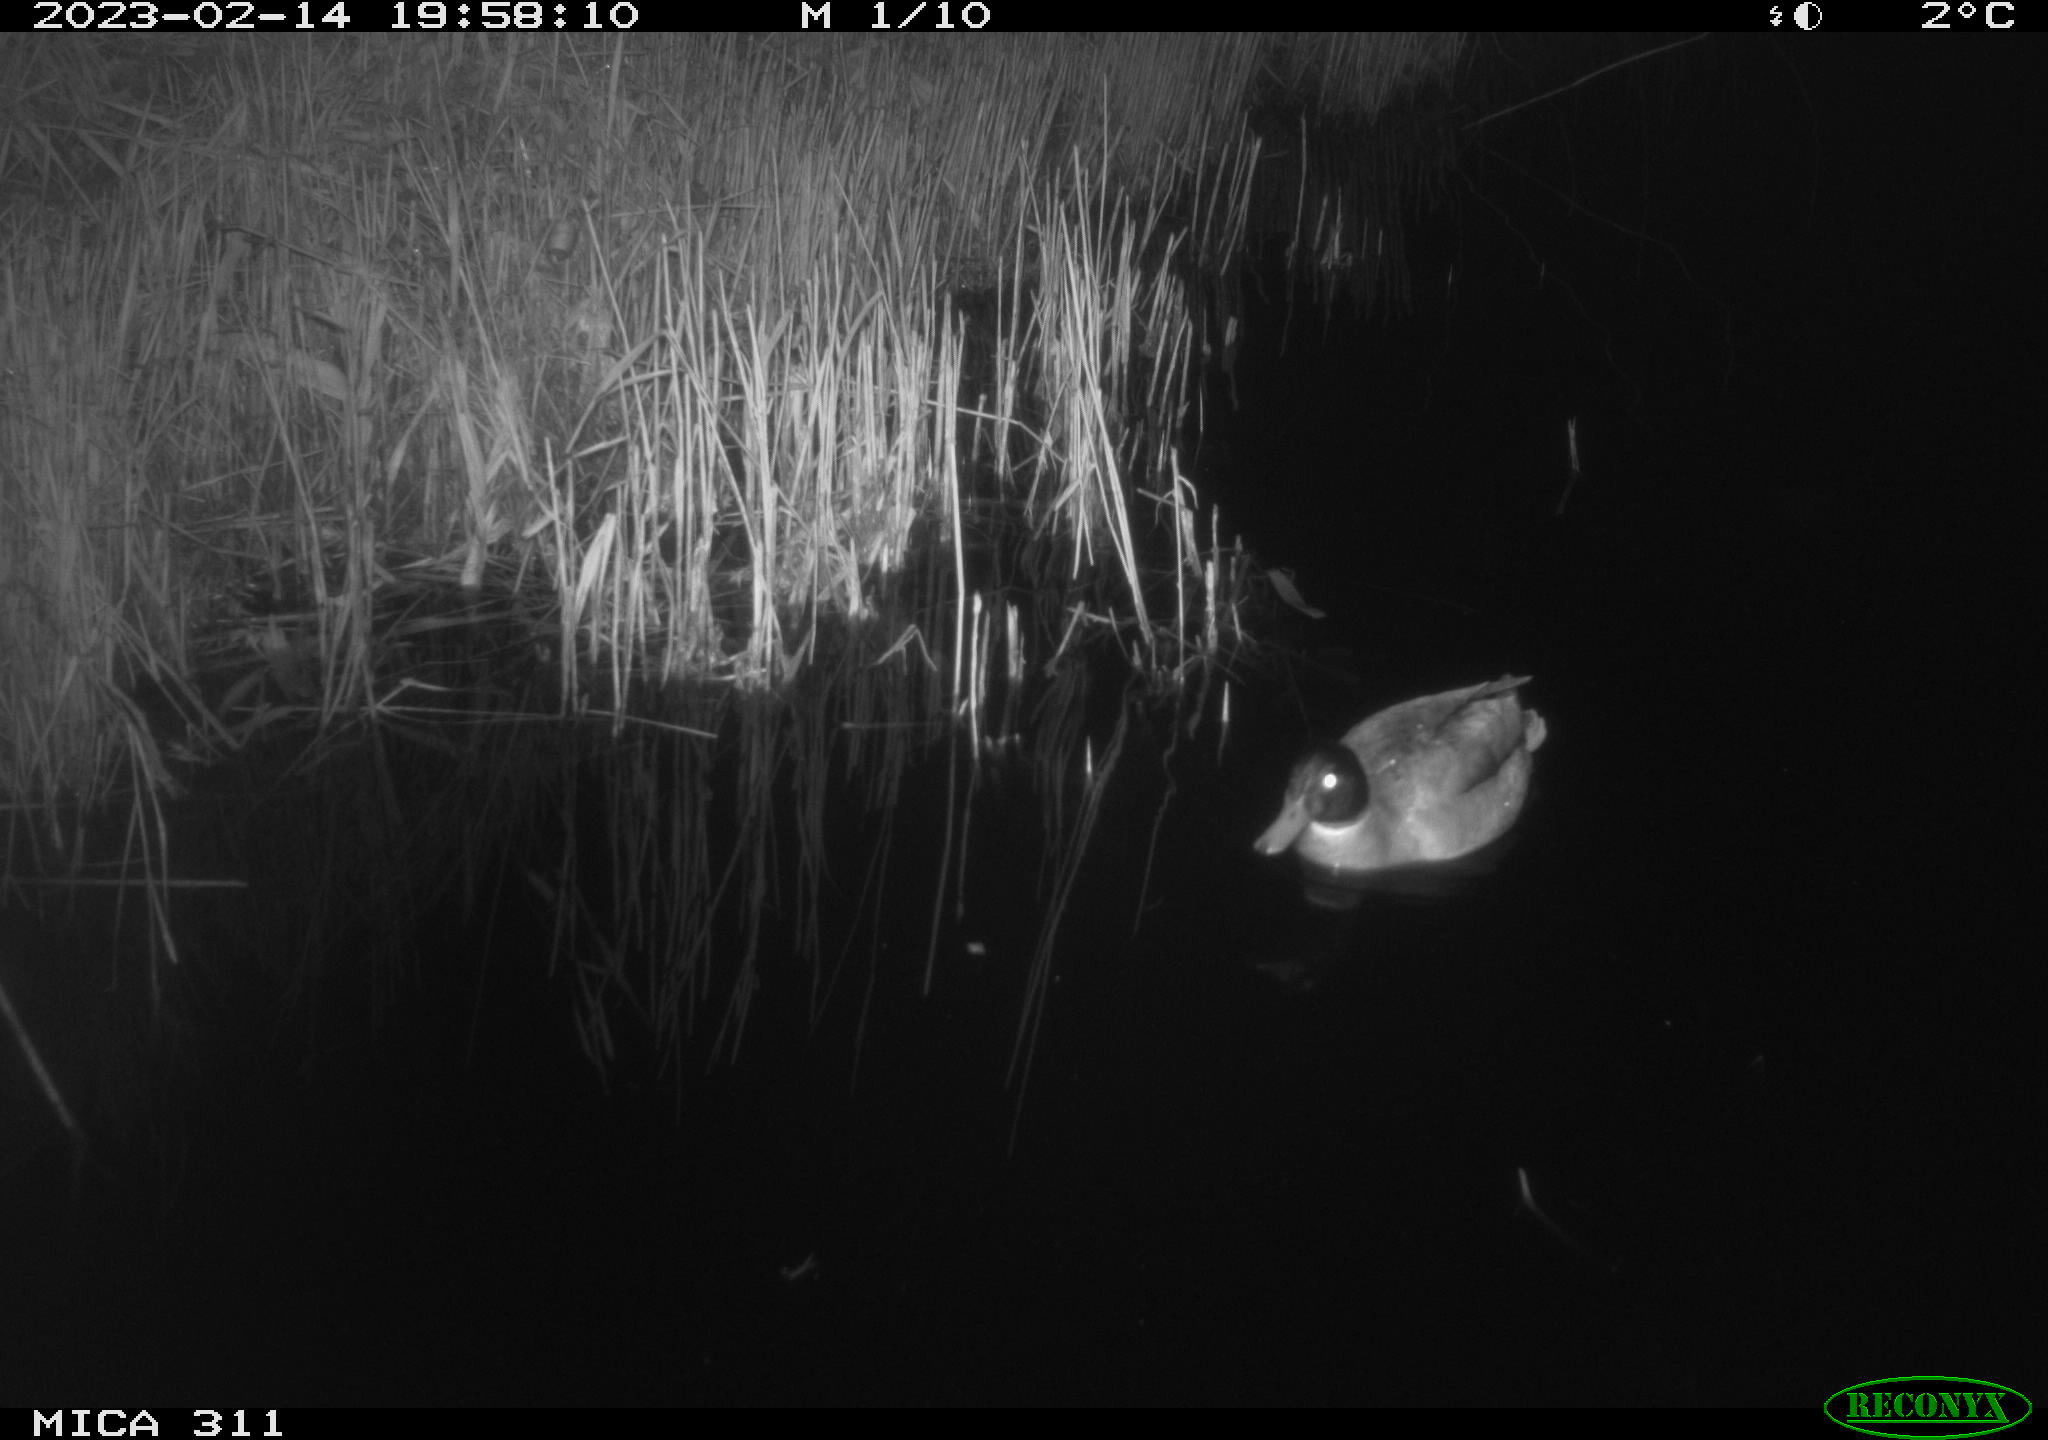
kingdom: Animalia
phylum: Chordata
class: Aves
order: Anseriformes
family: Anatidae
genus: Anas
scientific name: Anas
